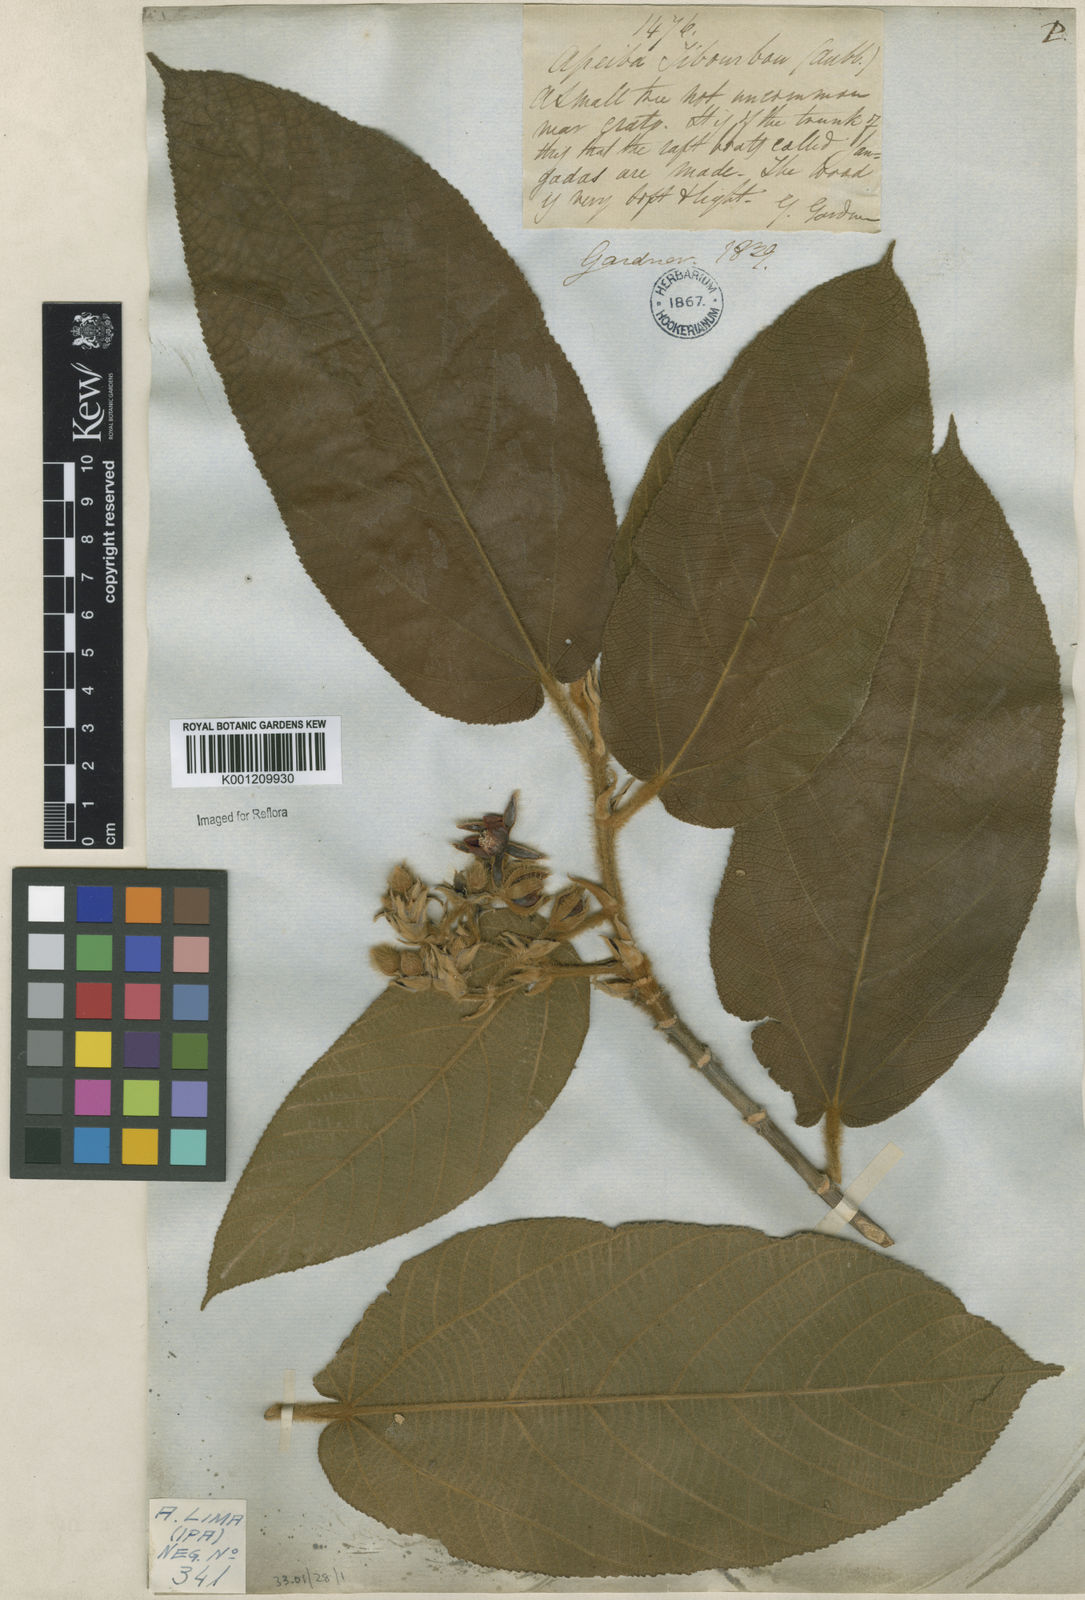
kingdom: Plantae
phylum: Tracheophyta
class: Magnoliopsida
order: Malvales
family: Malvaceae
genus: Apeiba
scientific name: Apeiba tibourbou
